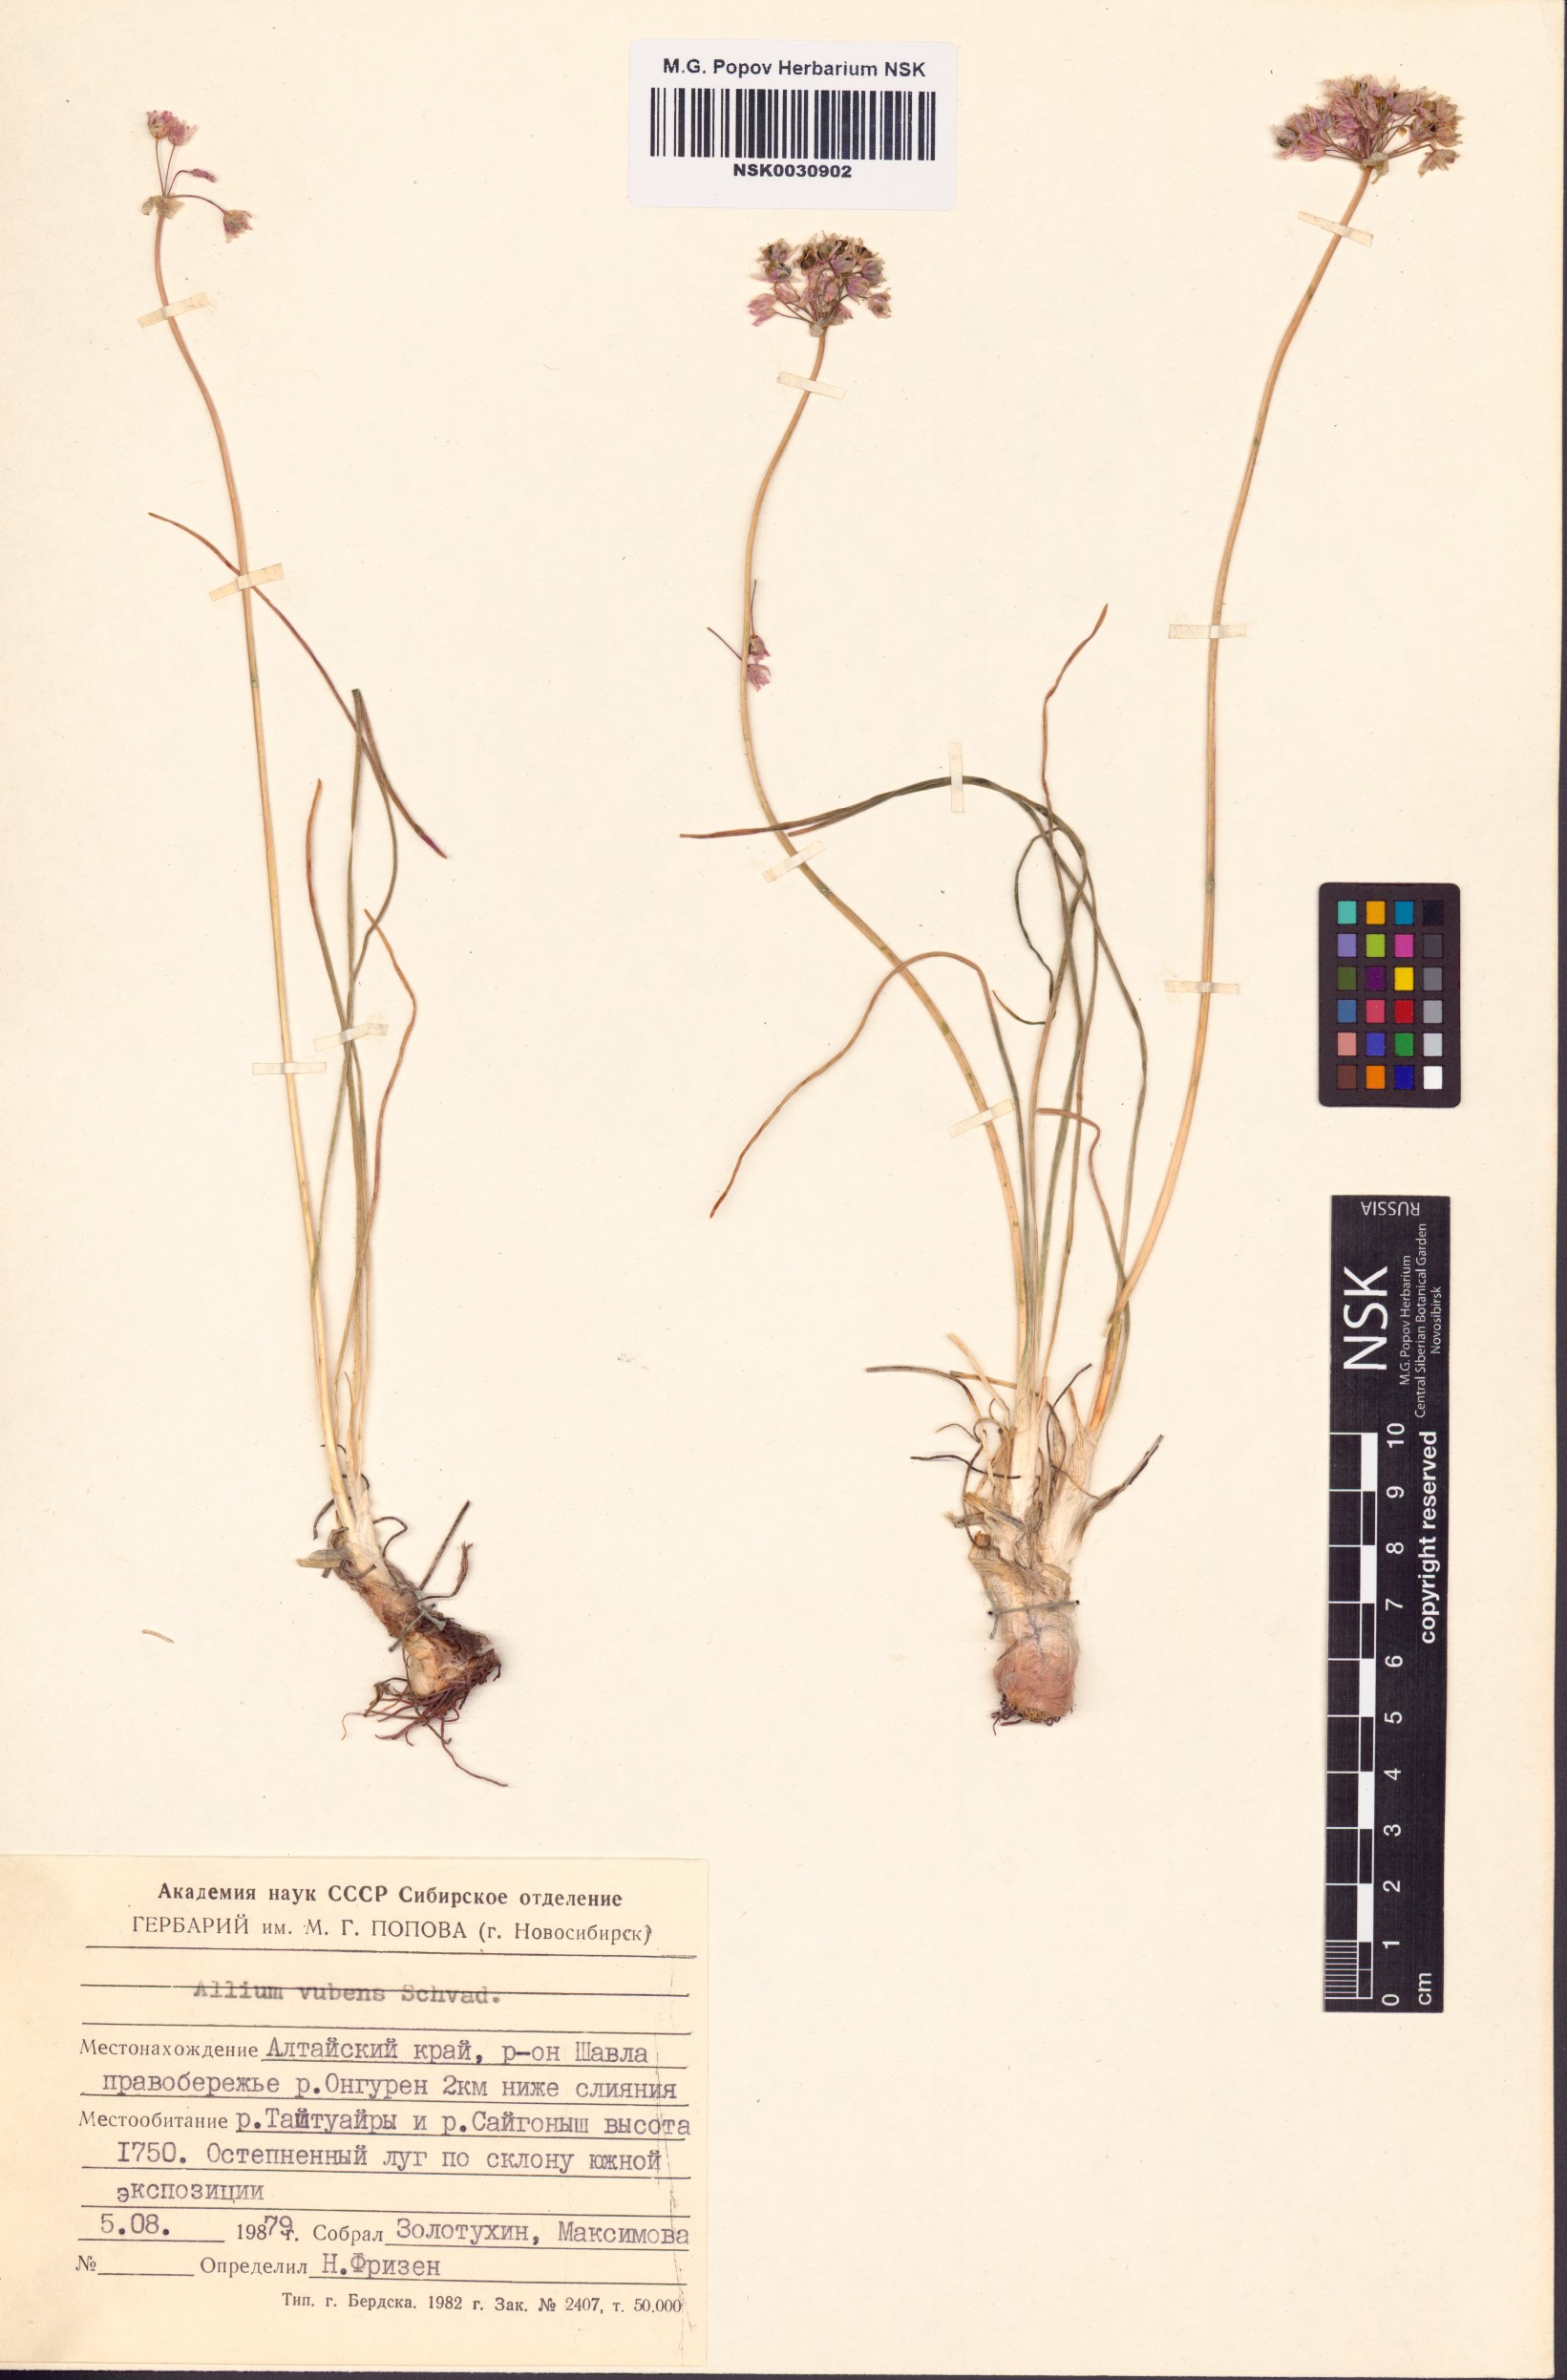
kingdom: Plantae
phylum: Tracheophyta
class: Liliopsida
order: Asparagales
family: Amaryllidaceae
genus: Allium
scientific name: Allium rubens
